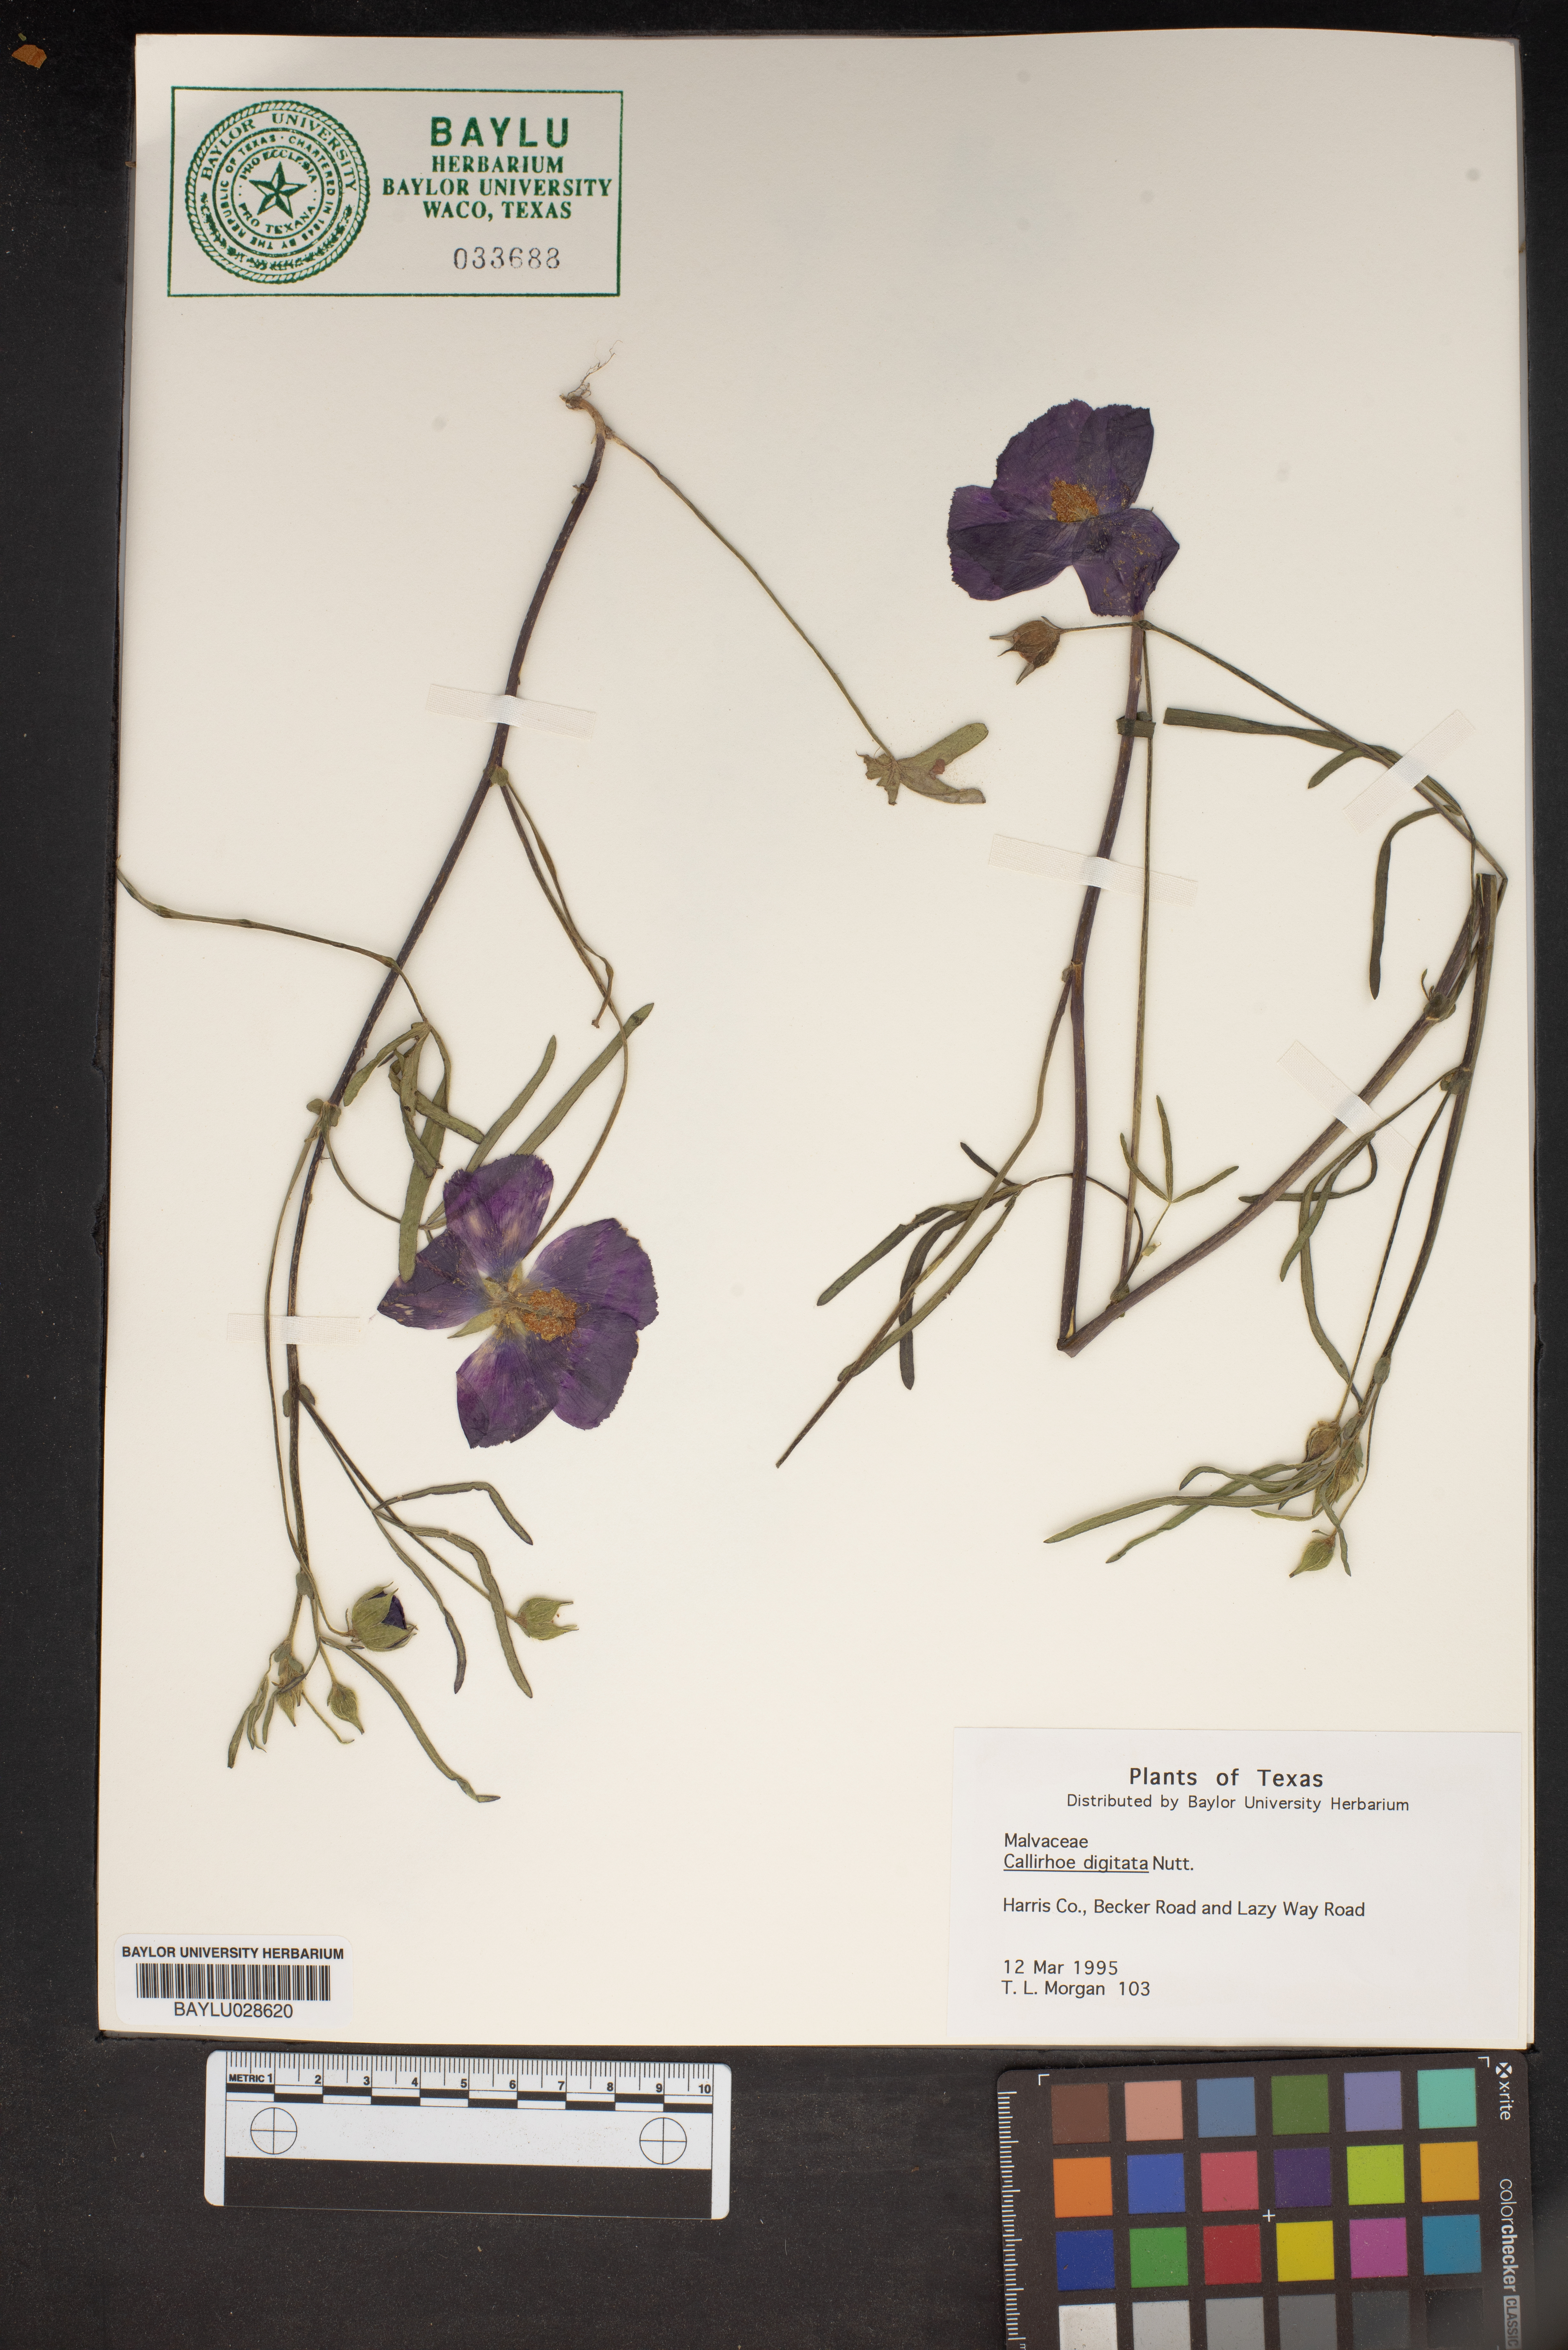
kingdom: Plantae
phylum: Tracheophyta
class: Magnoliopsida
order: Malvales
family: Malvaceae
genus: Callirhoe
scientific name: Callirhoe digitata
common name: Finger poppy-mallow
